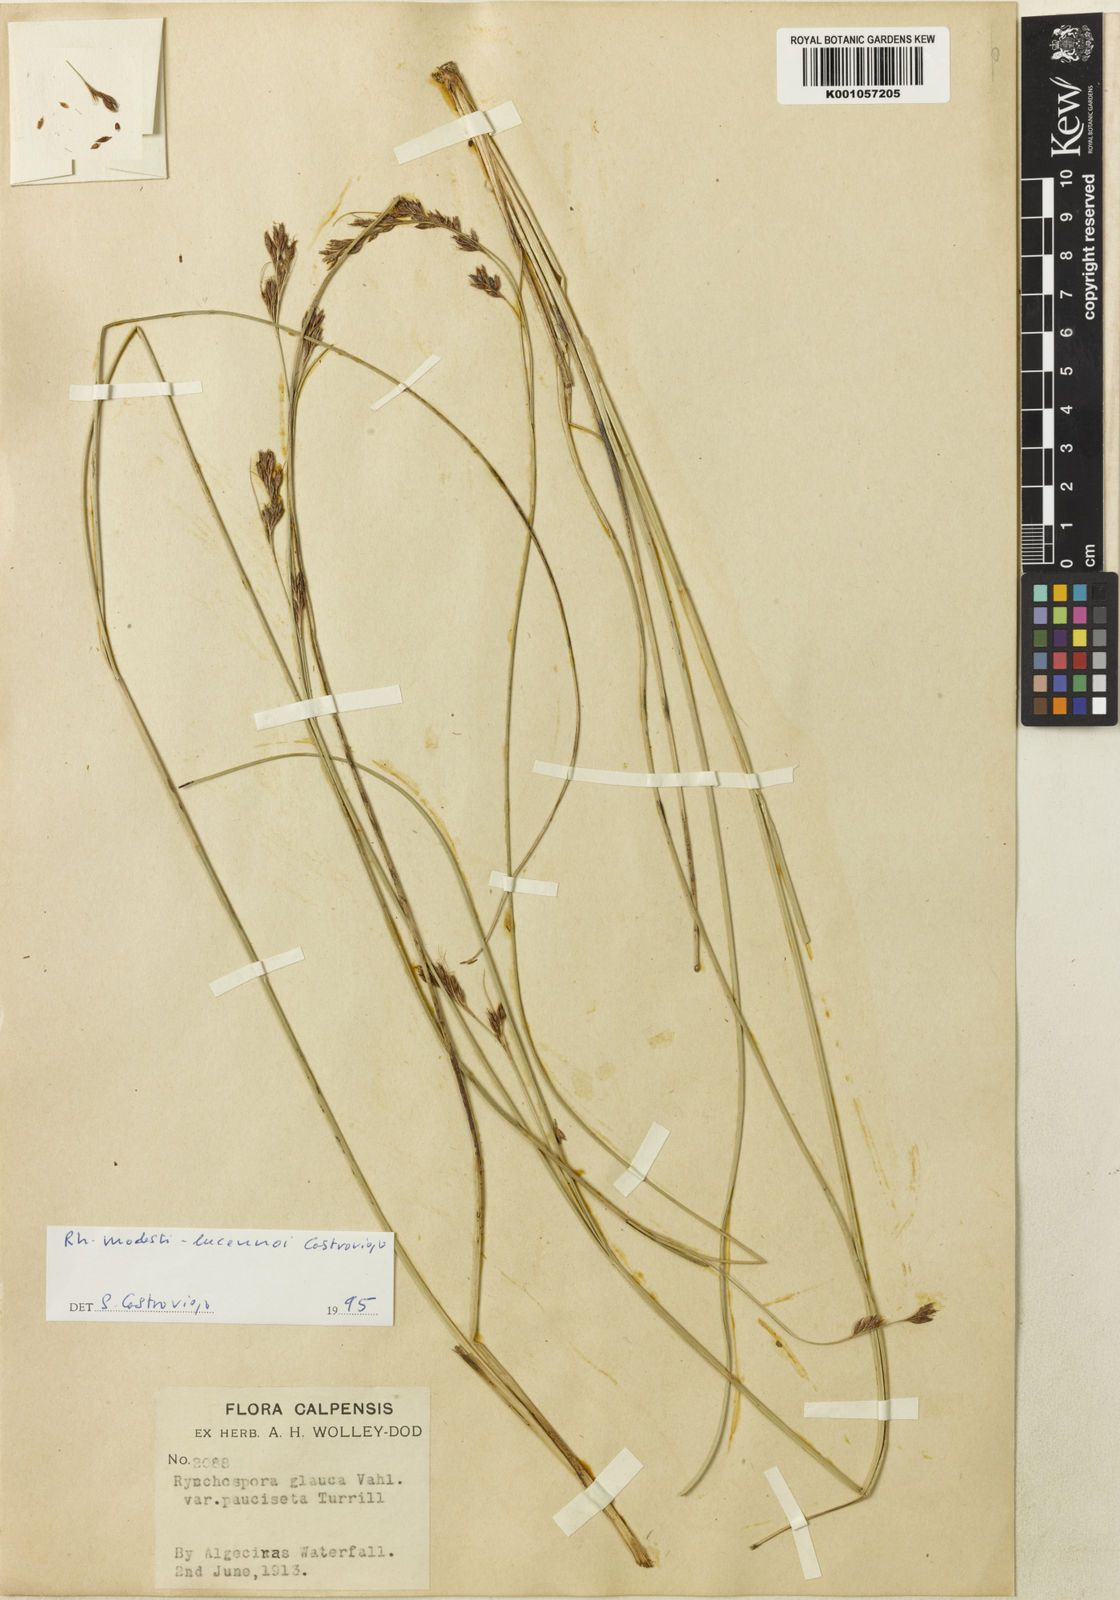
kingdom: Plantae
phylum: Tracheophyta
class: Liliopsida
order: Poales
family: Cyperaceae
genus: Rhynchospora
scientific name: Rhynchospora modesti-lucennoi
